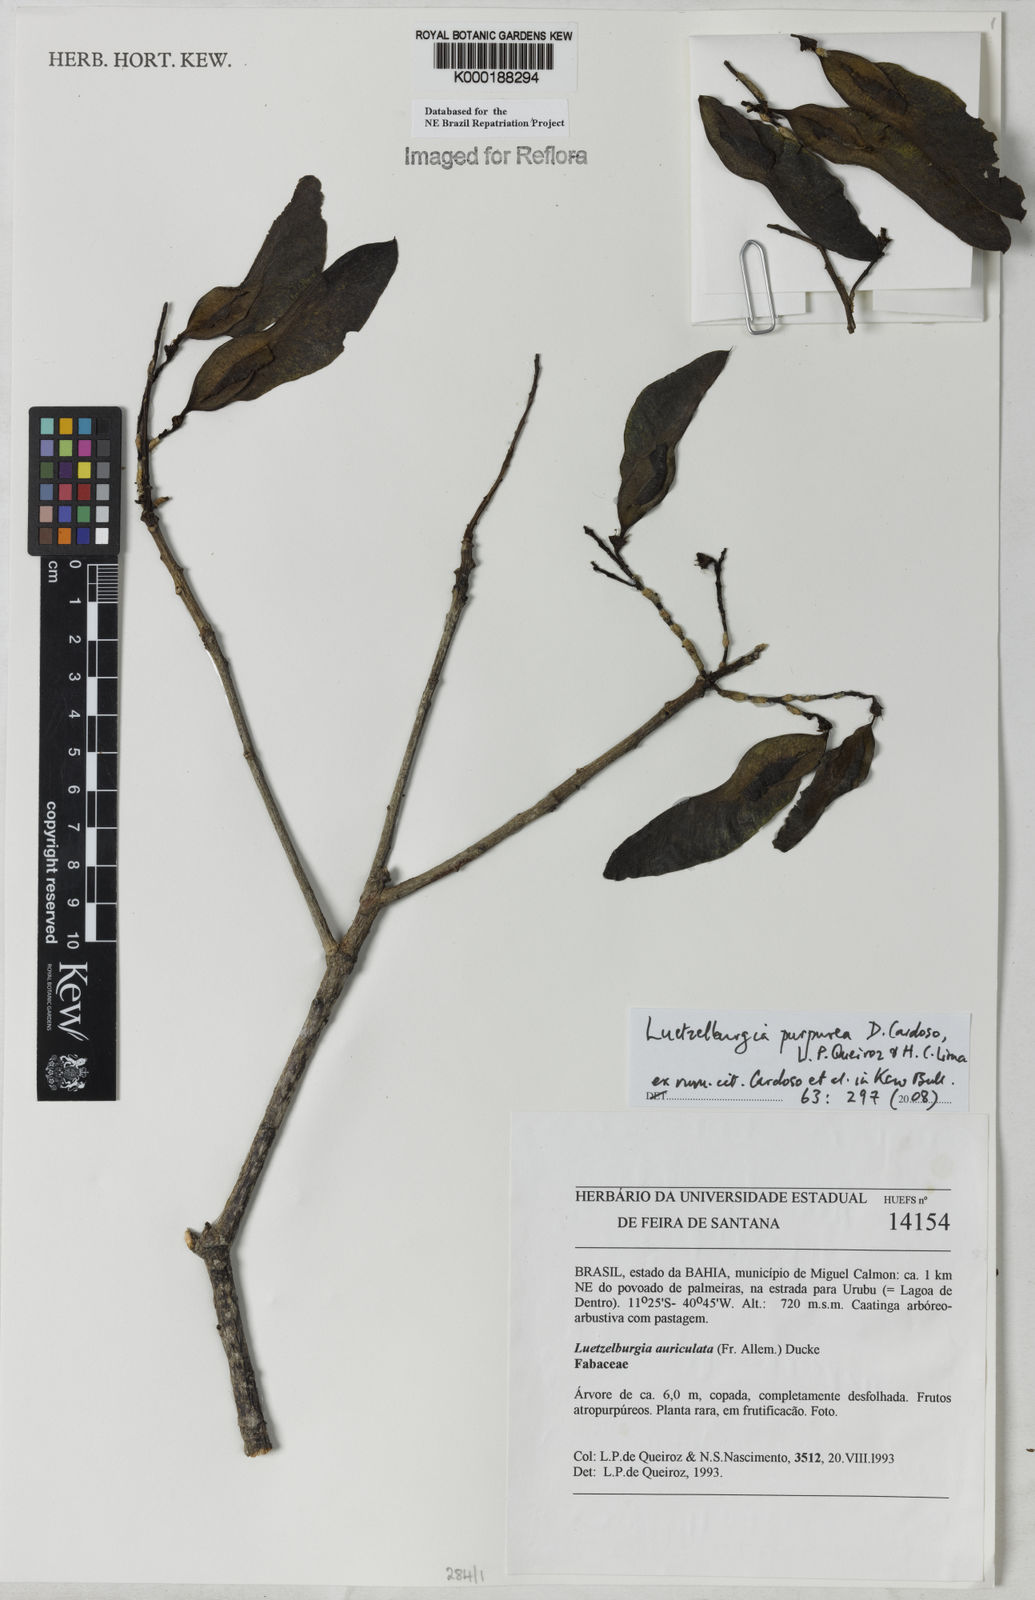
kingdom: Plantae
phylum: Tracheophyta
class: Magnoliopsida
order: Fabales
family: Fabaceae
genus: Luetzelburgia
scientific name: Luetzelburgia auriculata
